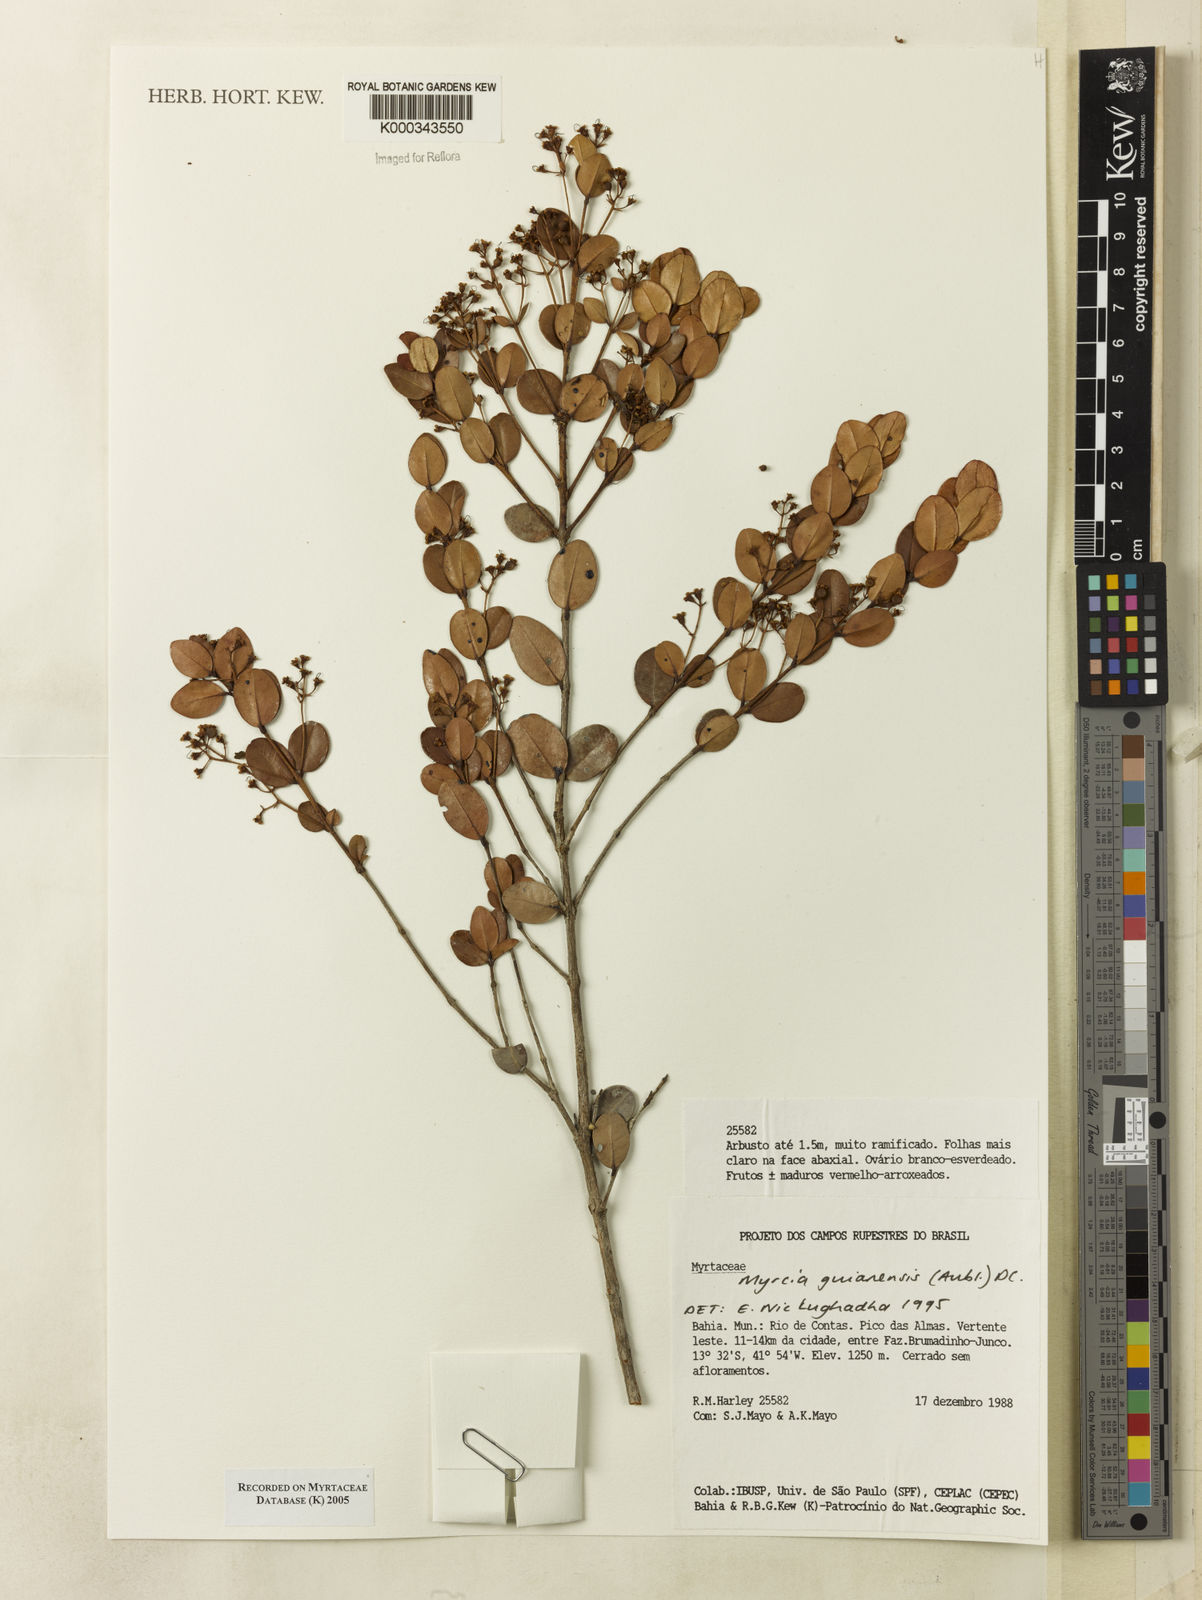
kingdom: Plantae
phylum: Tracheophyta
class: Magnoliopsida
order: Myrtales
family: Myrtaceae
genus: Myrcia
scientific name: Myrcia guianensis
